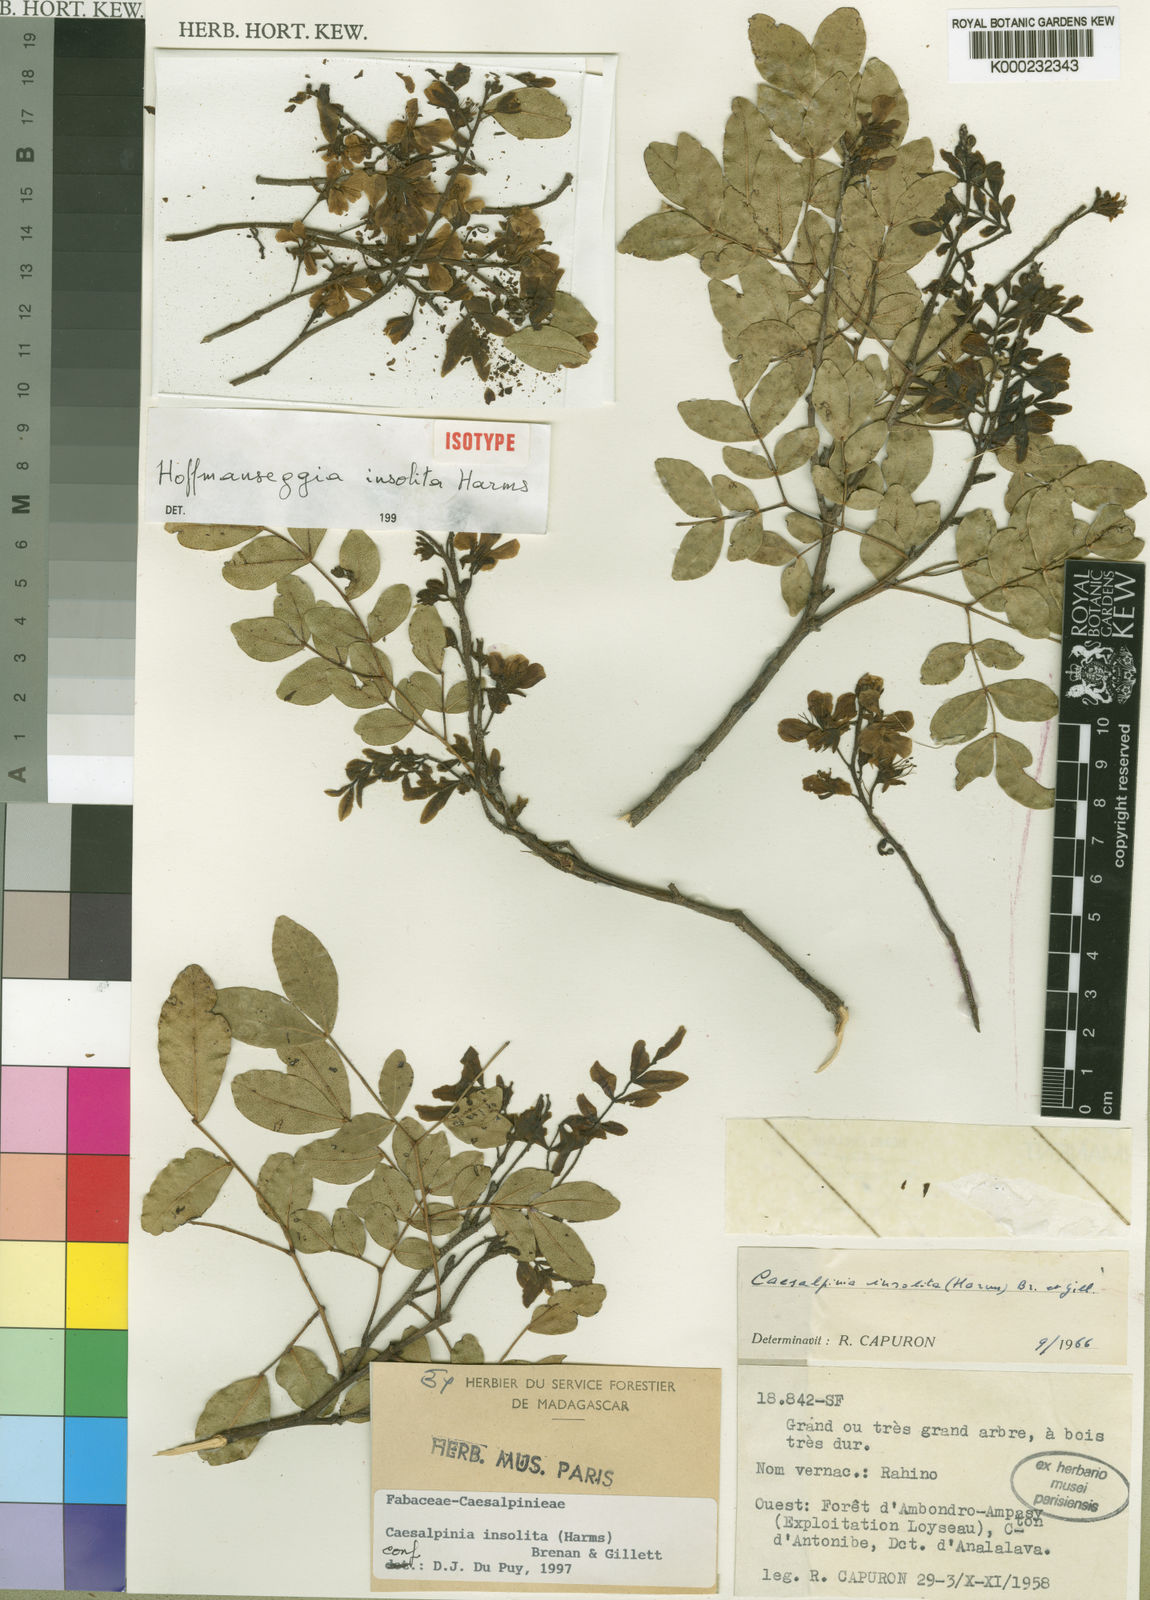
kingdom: Plantae
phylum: Tracheophyta
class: Magnoliopsida
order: Fabales
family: Fabaceae
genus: Stuhlmannia
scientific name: Stuhlmannia moavi
